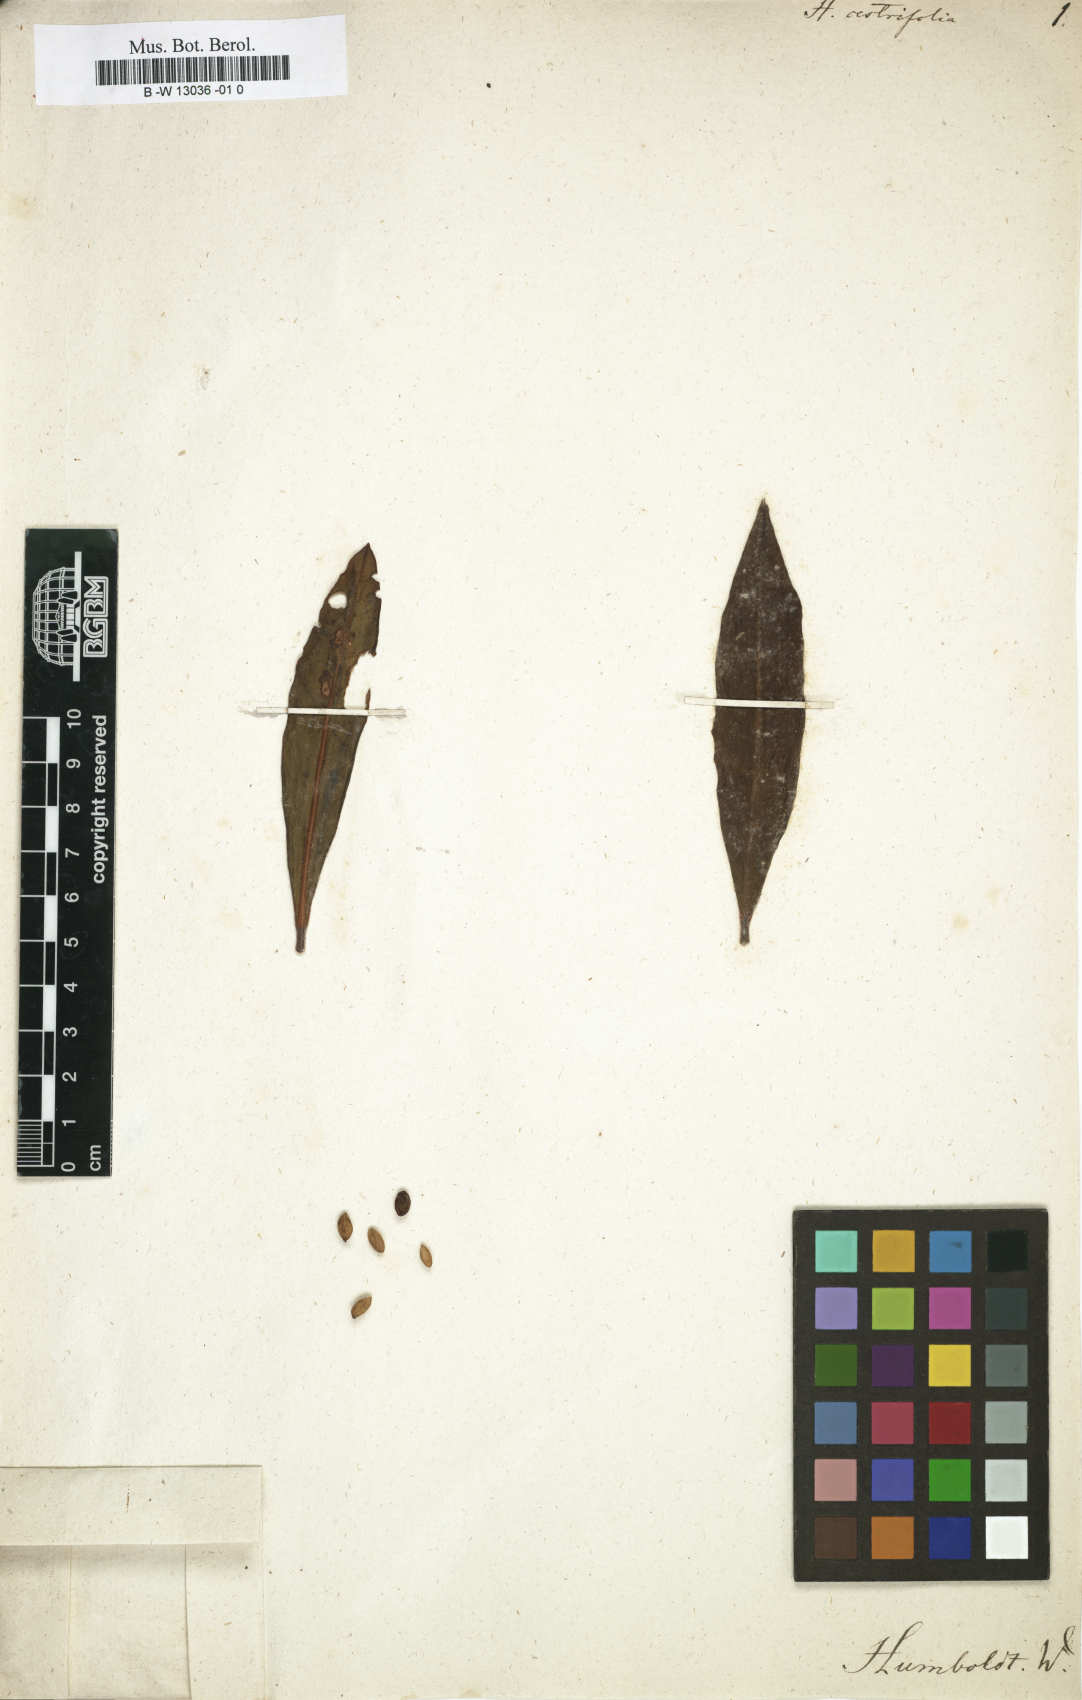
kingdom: Plantae
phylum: Tracheophyta
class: Magnoliopsida
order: Fabales
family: Polygalaceae
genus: Monnina
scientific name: Monnina cestrifolia
